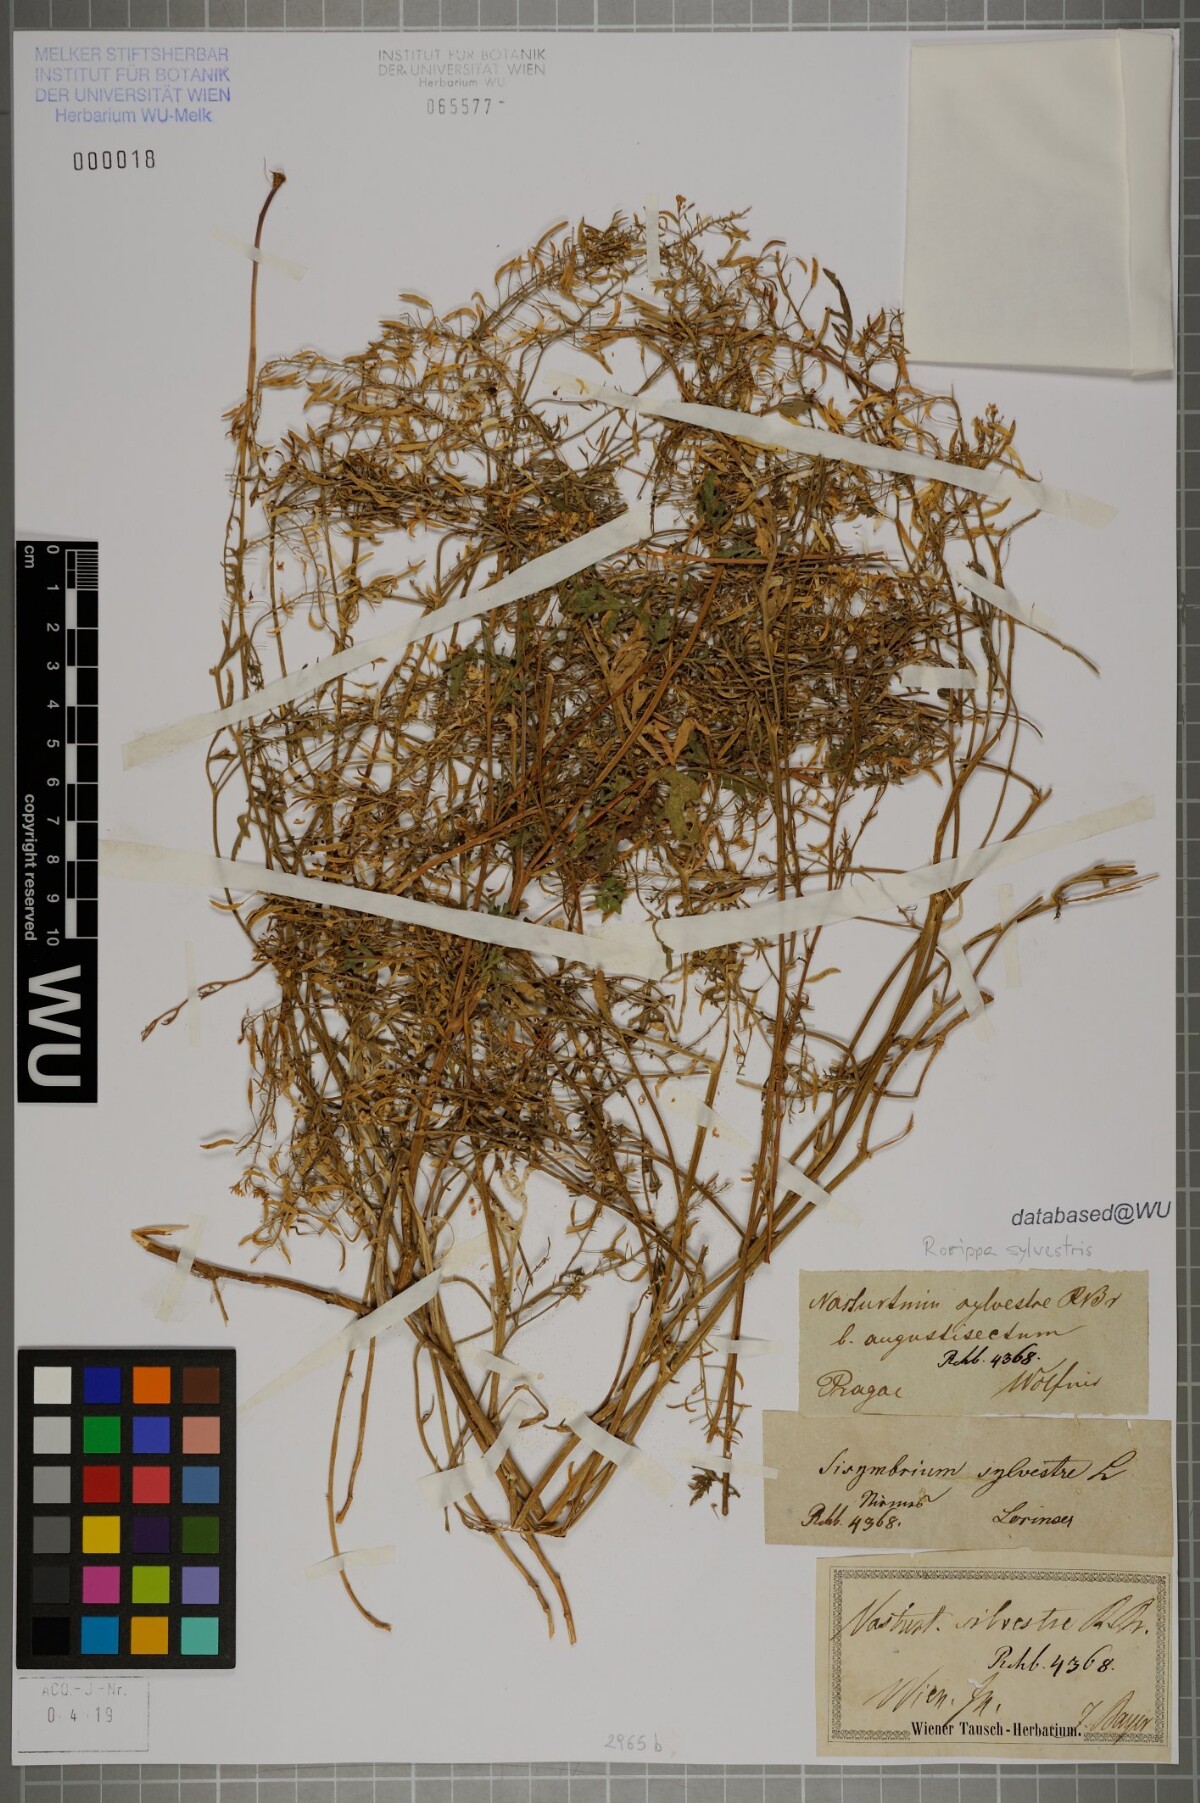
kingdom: Plantae
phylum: Tracheophyta
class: Magnoliopsida
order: Brassicales
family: Brassicaceae
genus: Rorippa
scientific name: Rorippa sylvestris
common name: Creeping yellowcress
